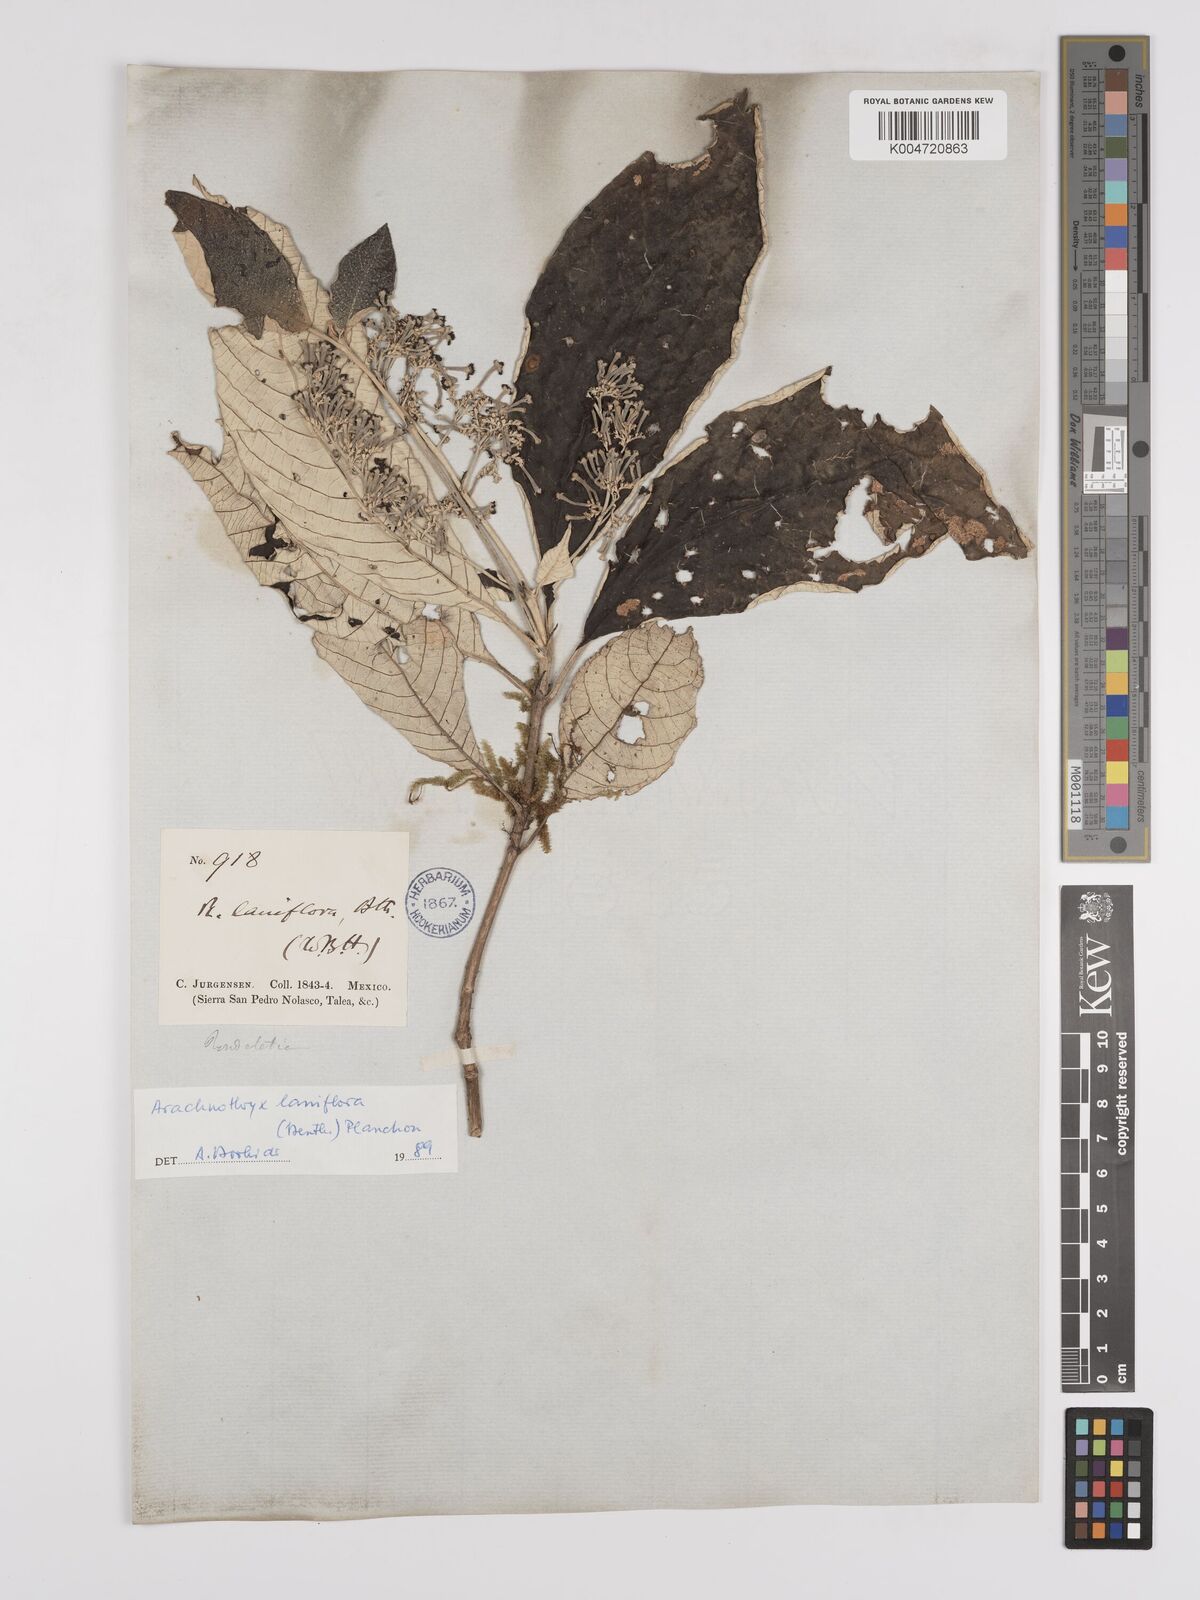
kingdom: Plantae
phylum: Tracheophyta
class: Magnoliopsida
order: Gentianales
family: Rubiaceae
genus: Arachnothryx
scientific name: Arachnothryx laniflora
